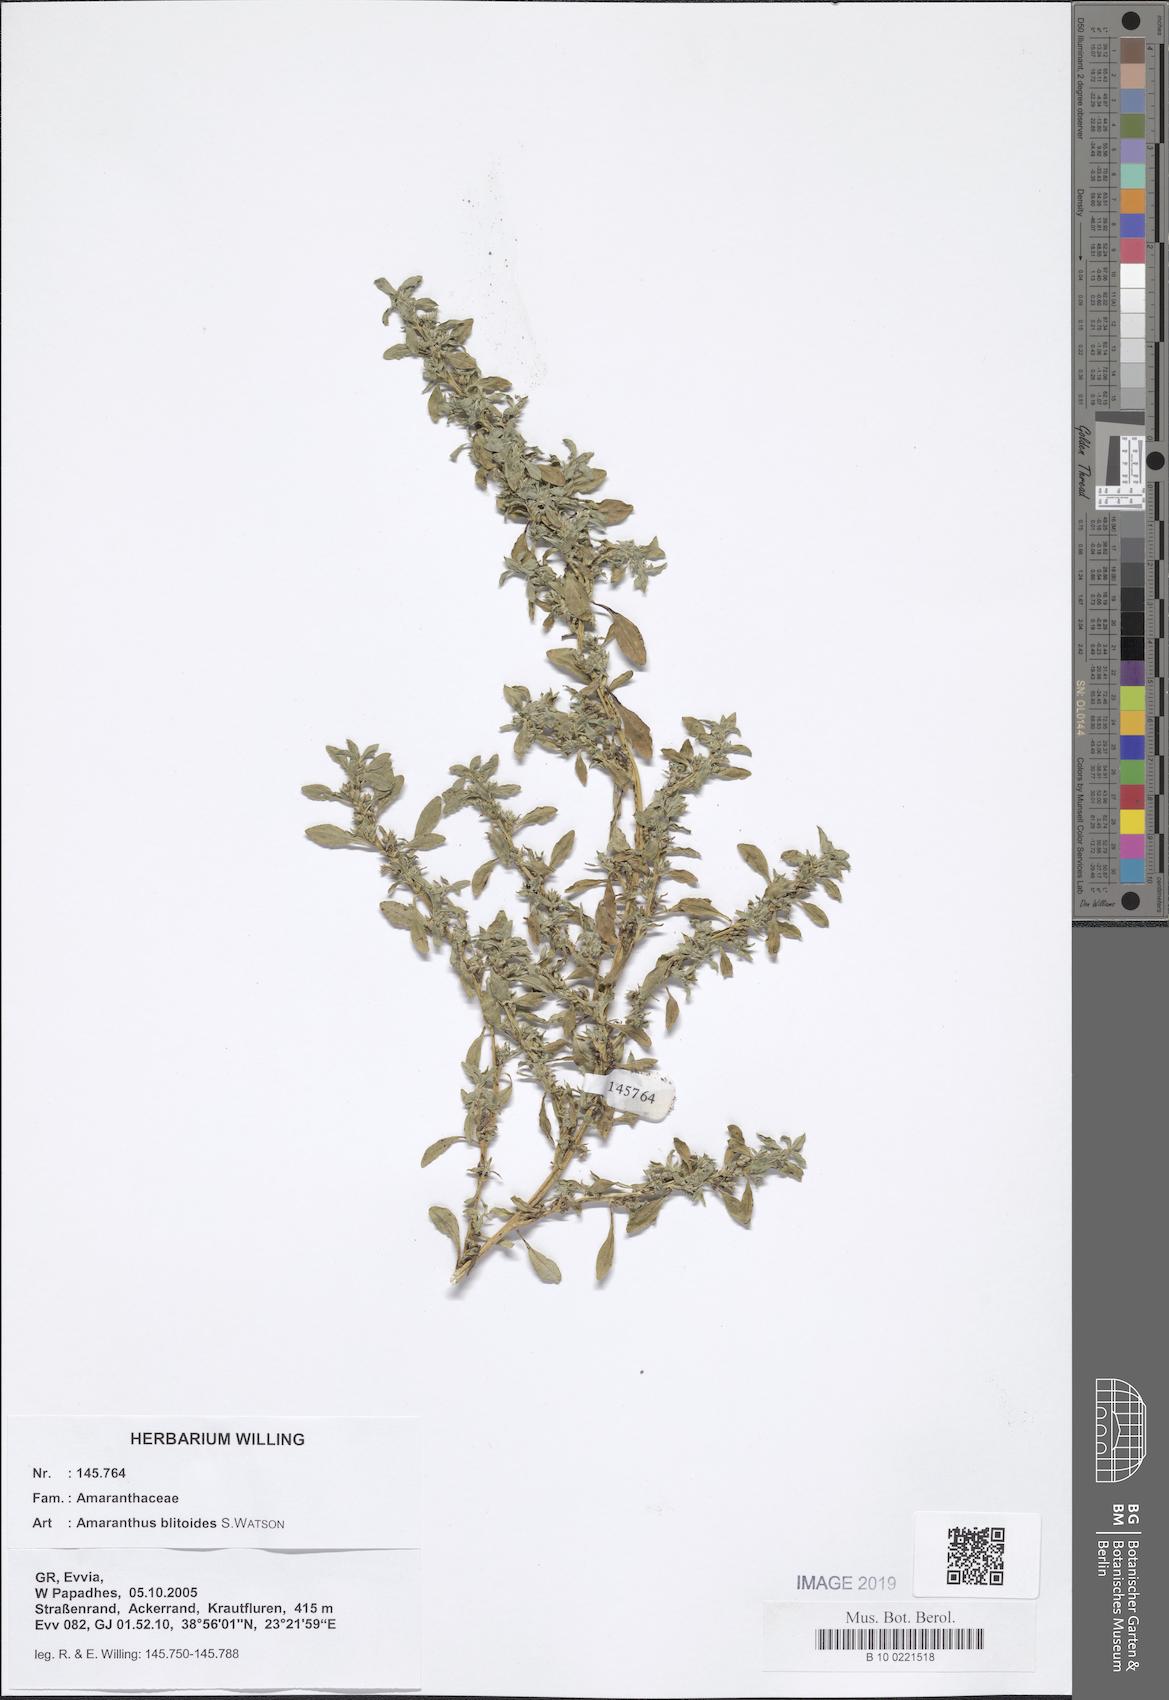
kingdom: Plantae
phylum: Tracheophyta
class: Magnoliopsida
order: Caryophyllales
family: Amaranthaceae
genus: Amaranthus
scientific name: Amaranthus blitoides
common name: Prostrate pigweed
